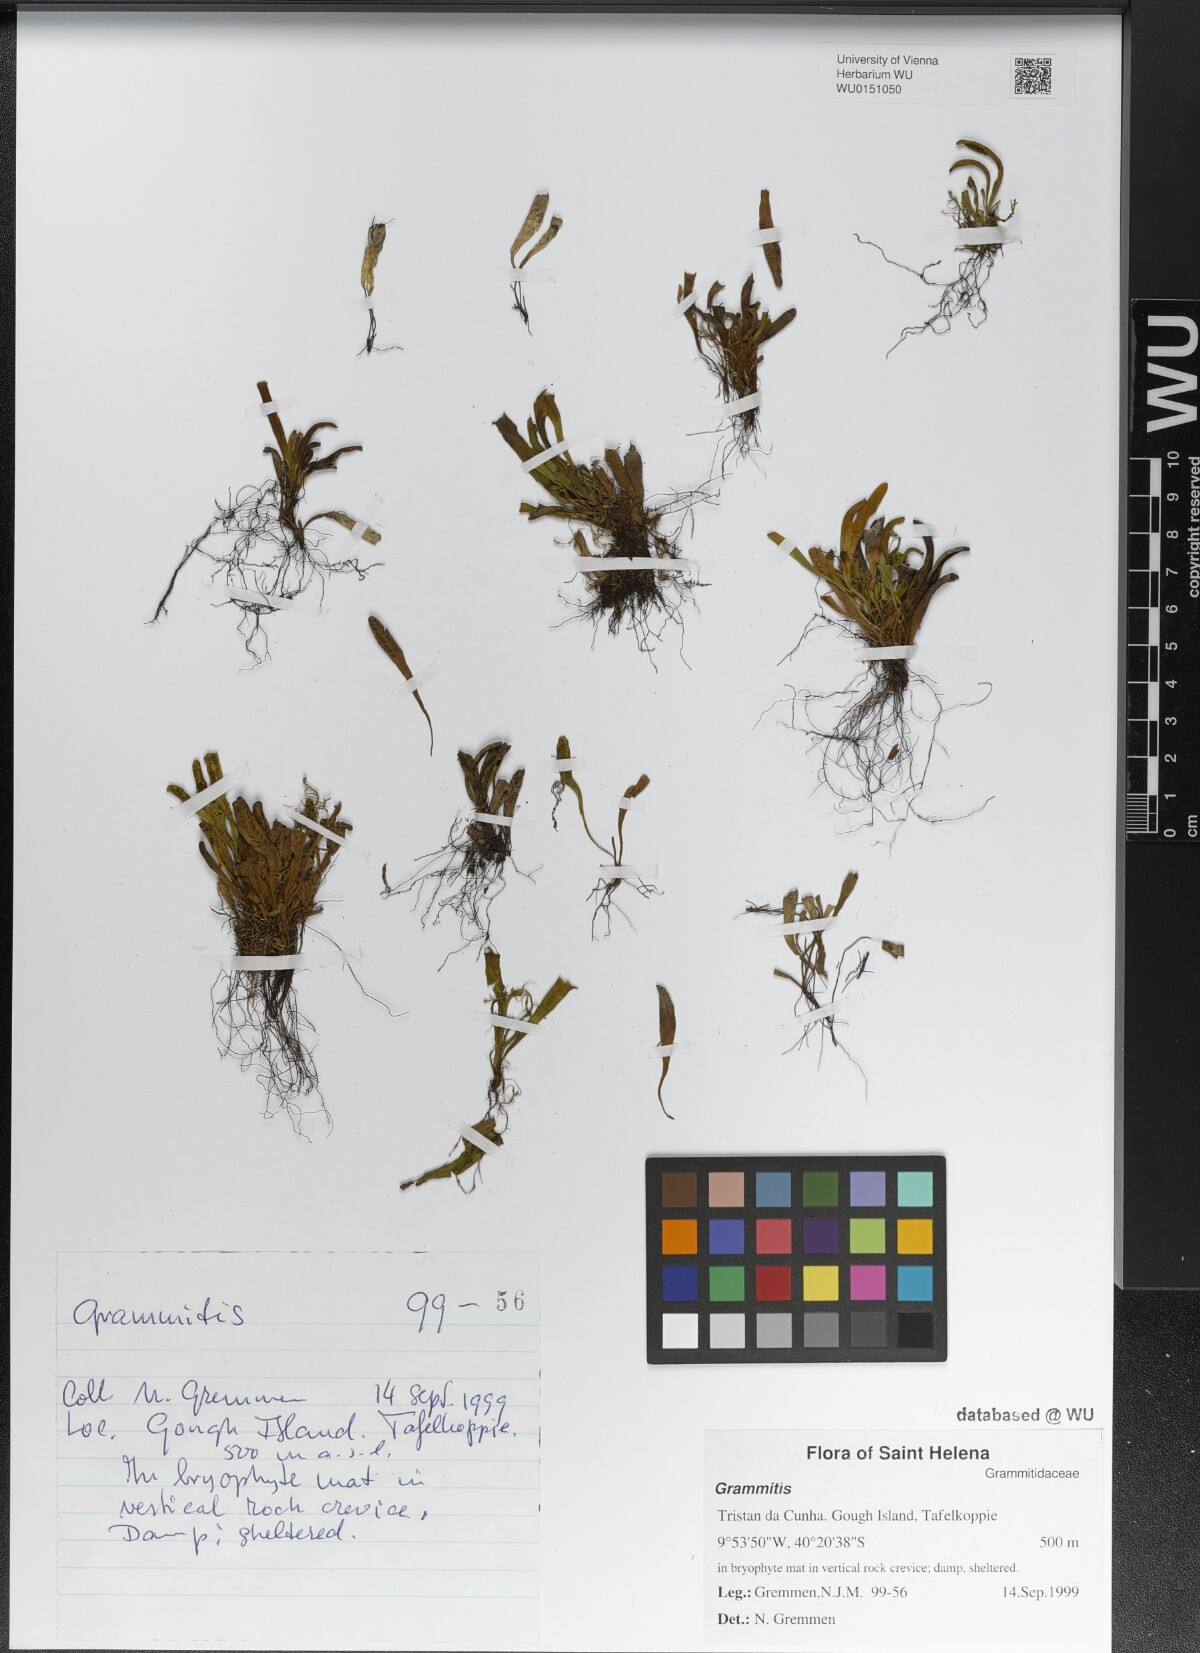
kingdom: Plantae
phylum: Tracheophyta
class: Polypodiopsida
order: Polypodiales
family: Polypodiaceae
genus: Grammitis
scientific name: Grammitis
